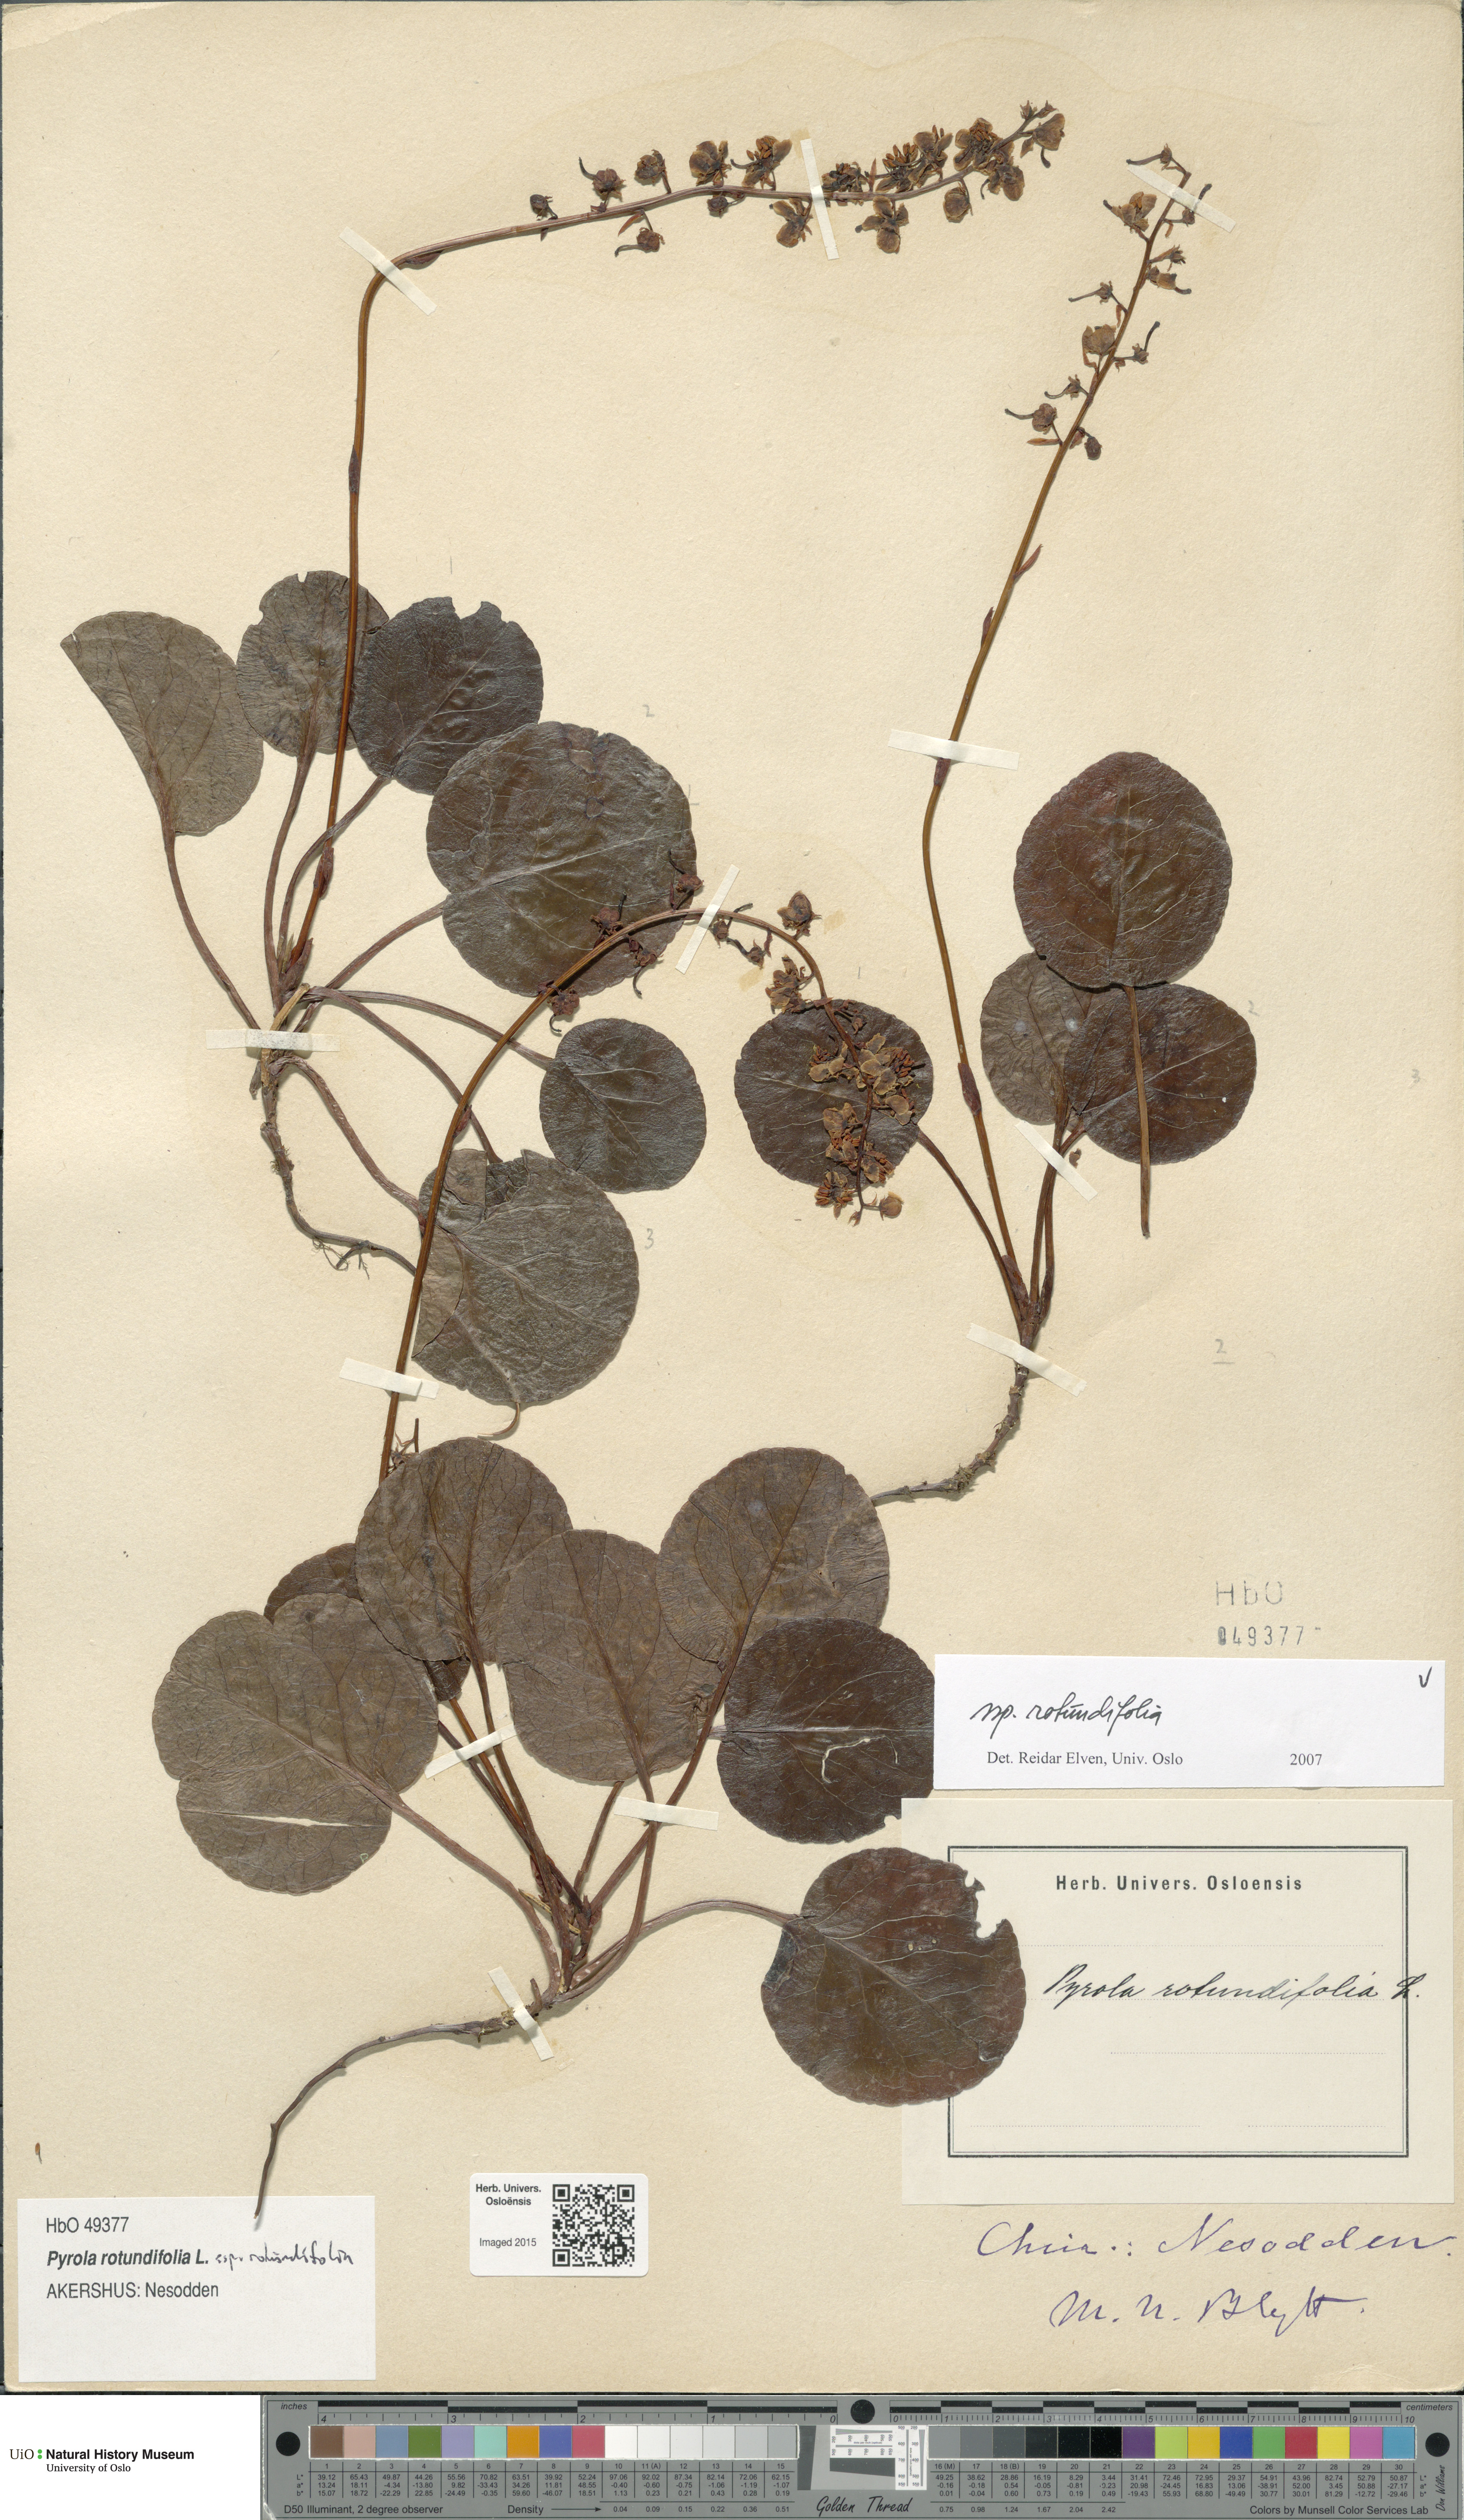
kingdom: Plantae
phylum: Tracheophyta
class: Magnoliopsida
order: Ericales
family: Ericaceae
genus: Pyrola
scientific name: Pyrola rotundifolia
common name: Round-leaved wintergreen
